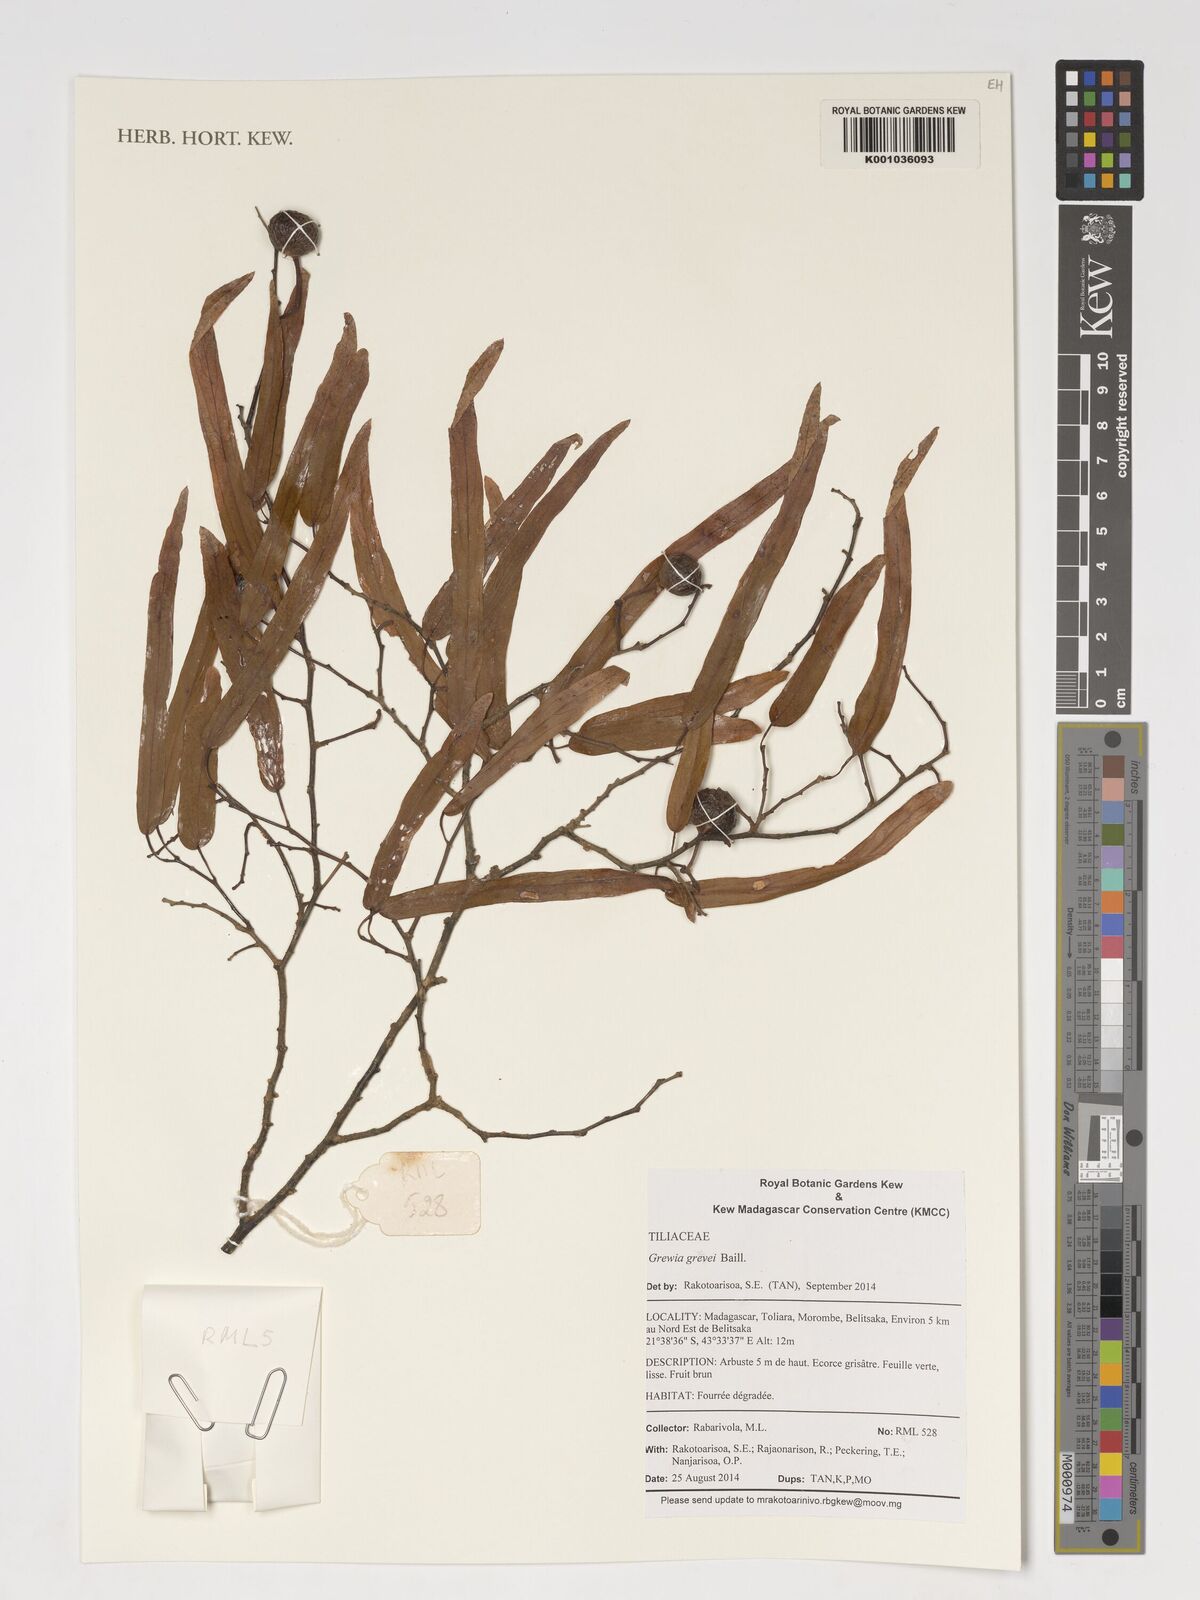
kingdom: Plantae
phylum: Tracheophyta
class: Magnoliopsida
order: Malvales
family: Malvaceae
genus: Grewia
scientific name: Grewia grevei
